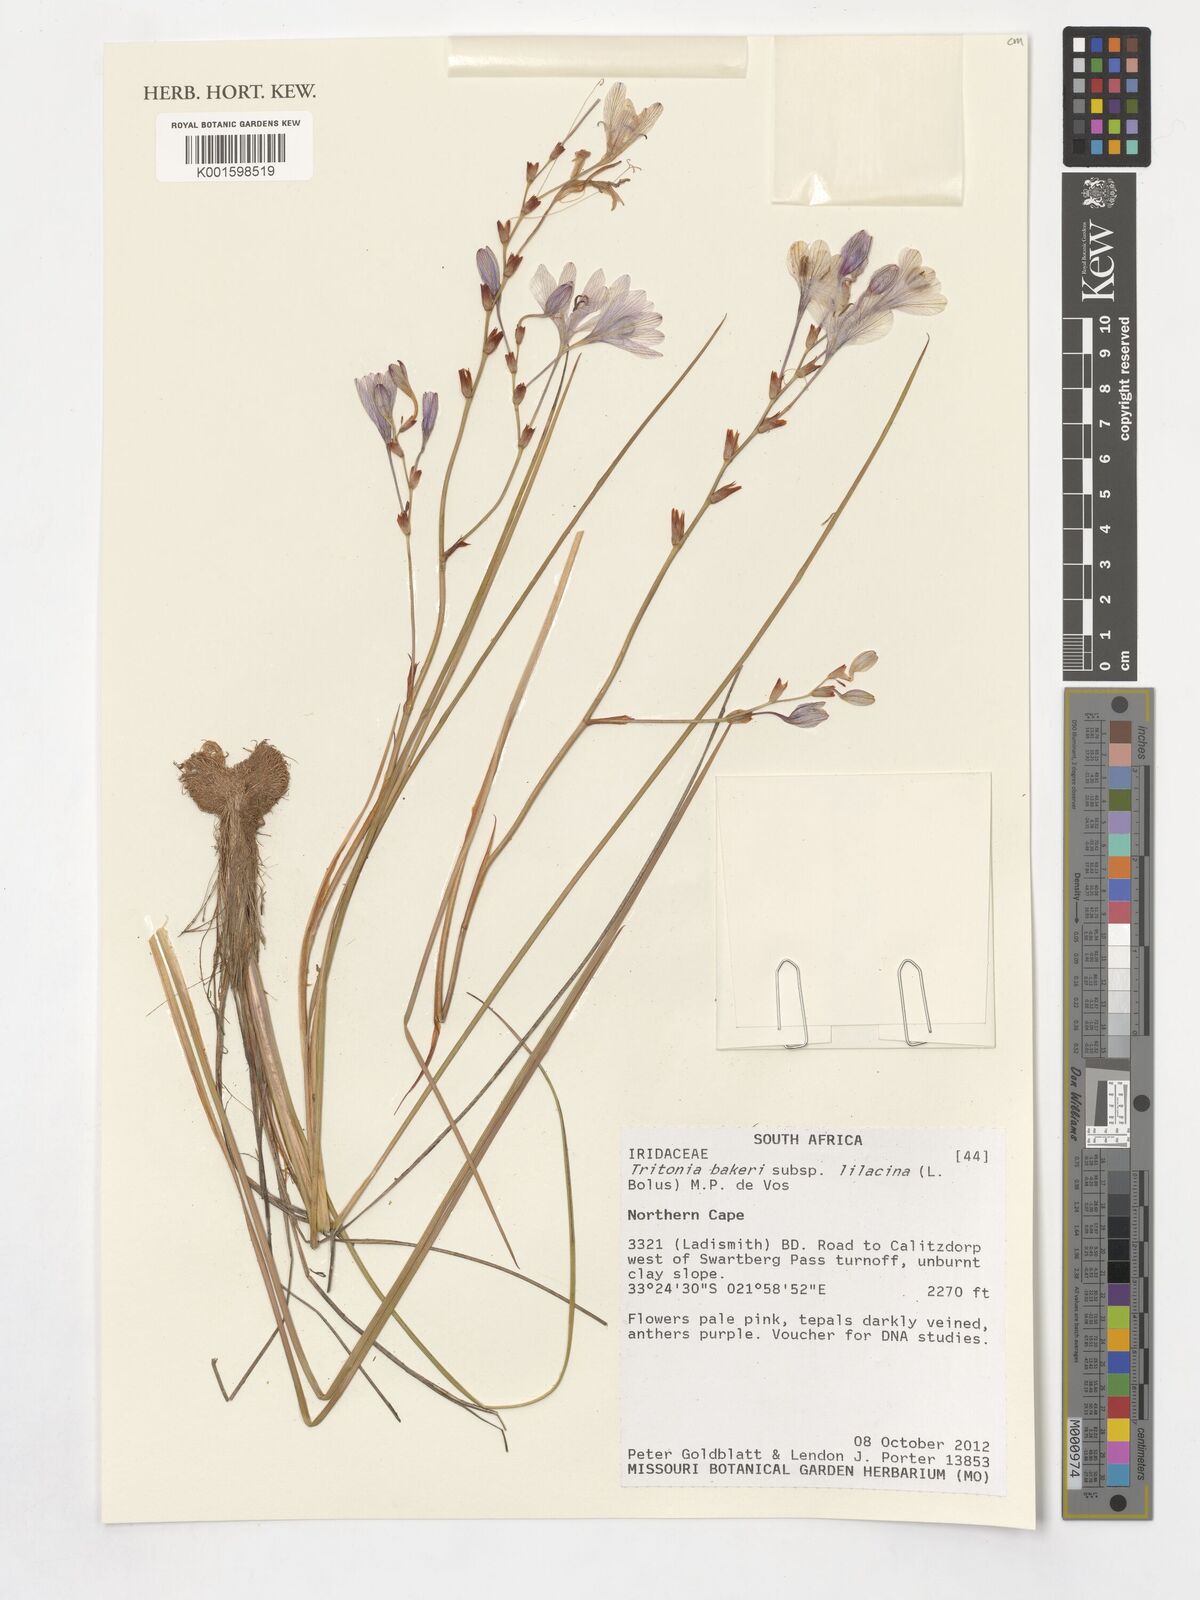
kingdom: Plantae
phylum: Tracheophyta
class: Liliopsida
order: Asparagales
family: Iridaceae
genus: Tritonia
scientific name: Tritonia bakeri
